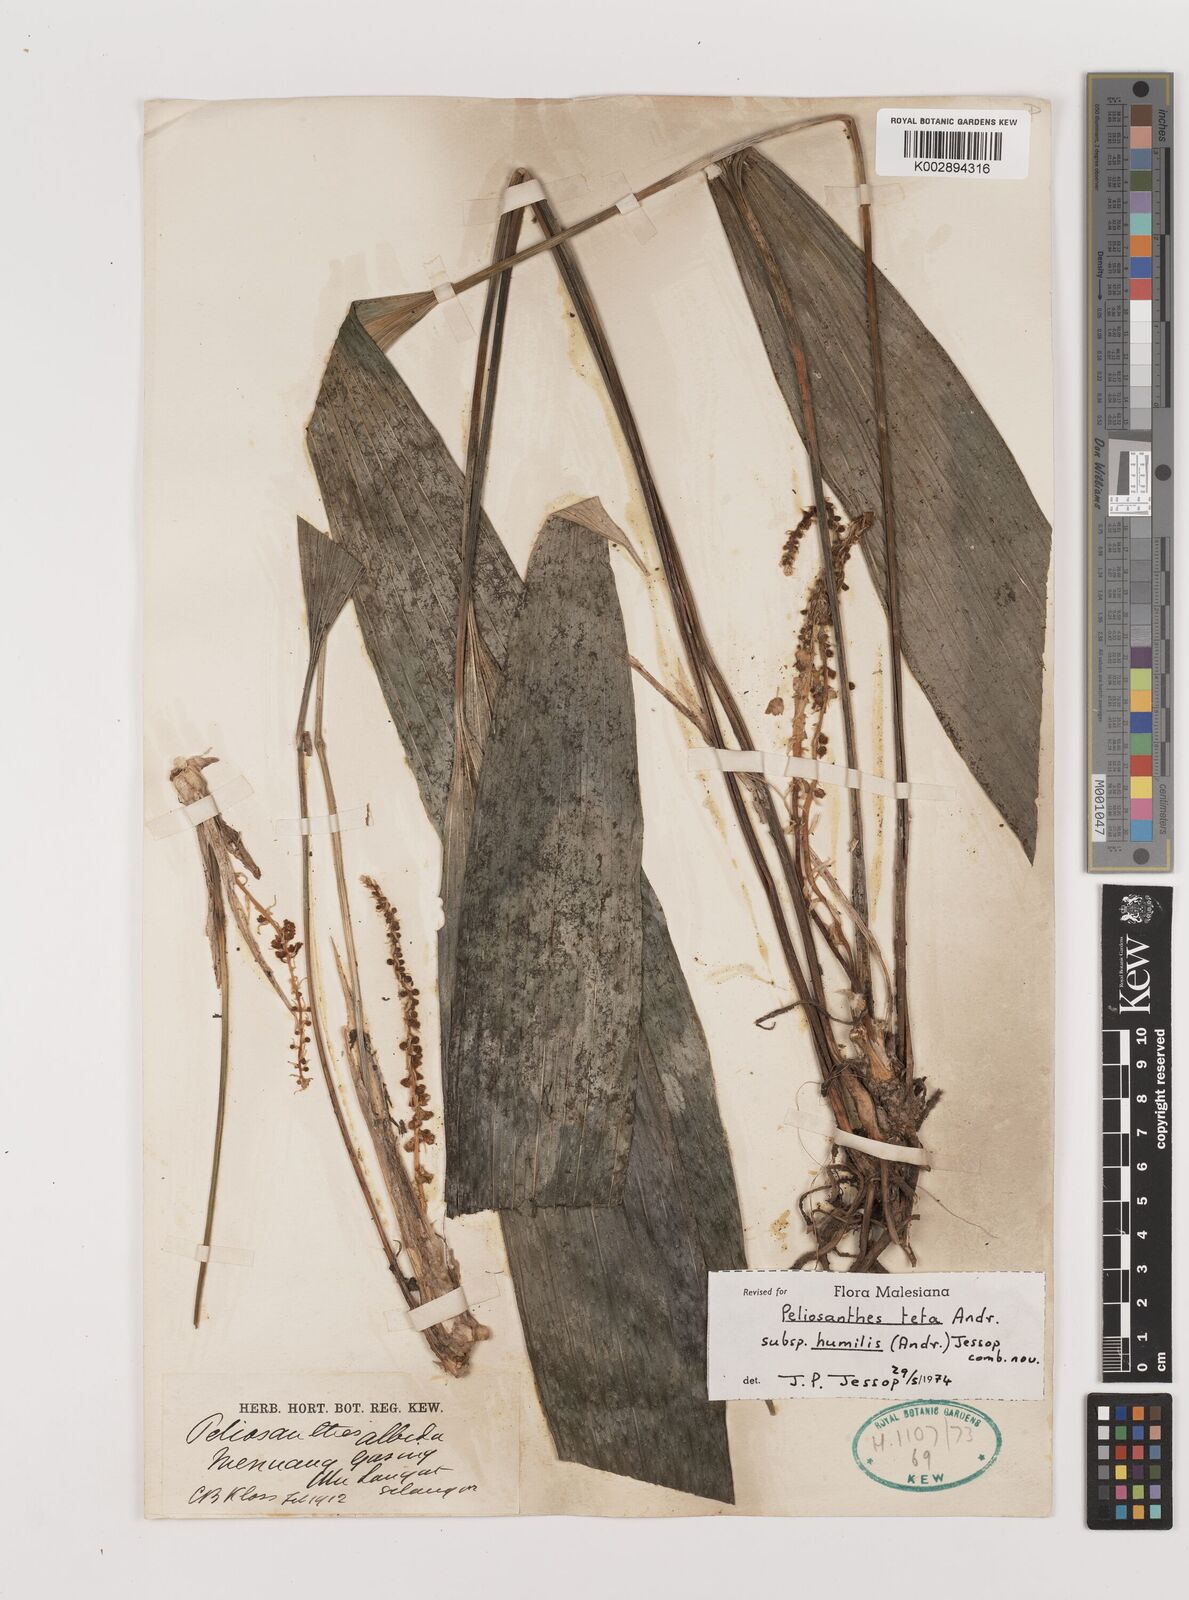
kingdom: Plantae
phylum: Tracheophyta
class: Liliopsida
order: Asparagales
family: Asparagaceae
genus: Peliosanthes
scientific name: Peliosanthes teta
